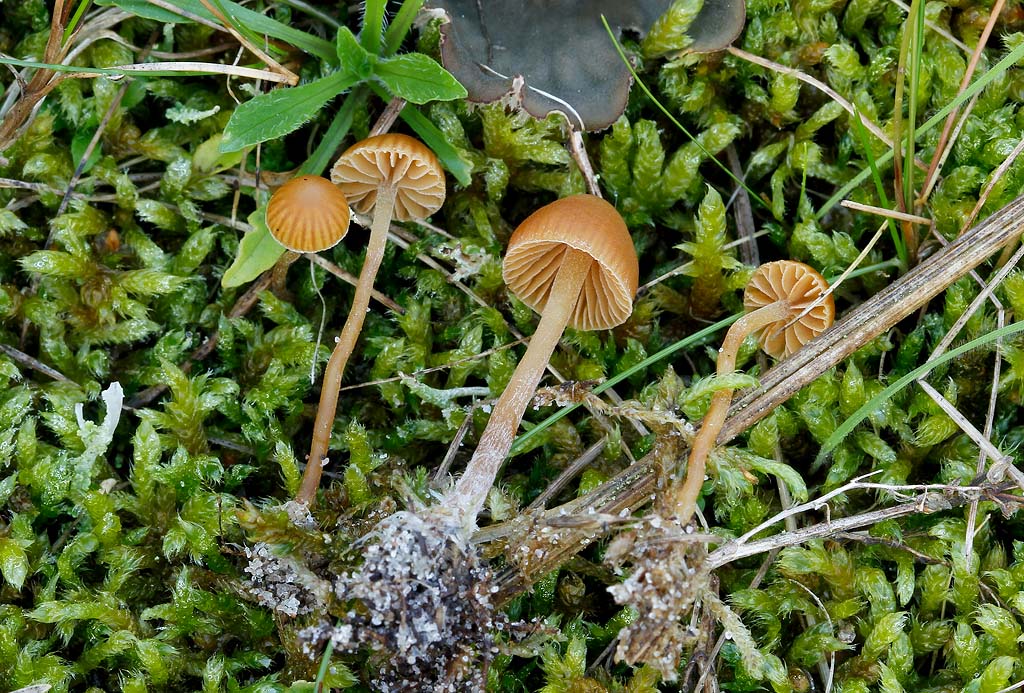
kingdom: Fungi
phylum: Basidiomycota
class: Agaricomycetes
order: Agaricales
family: Hymenogastraceae
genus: Galerina
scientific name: Galerina mniophila
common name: olivengul hjelmhat
